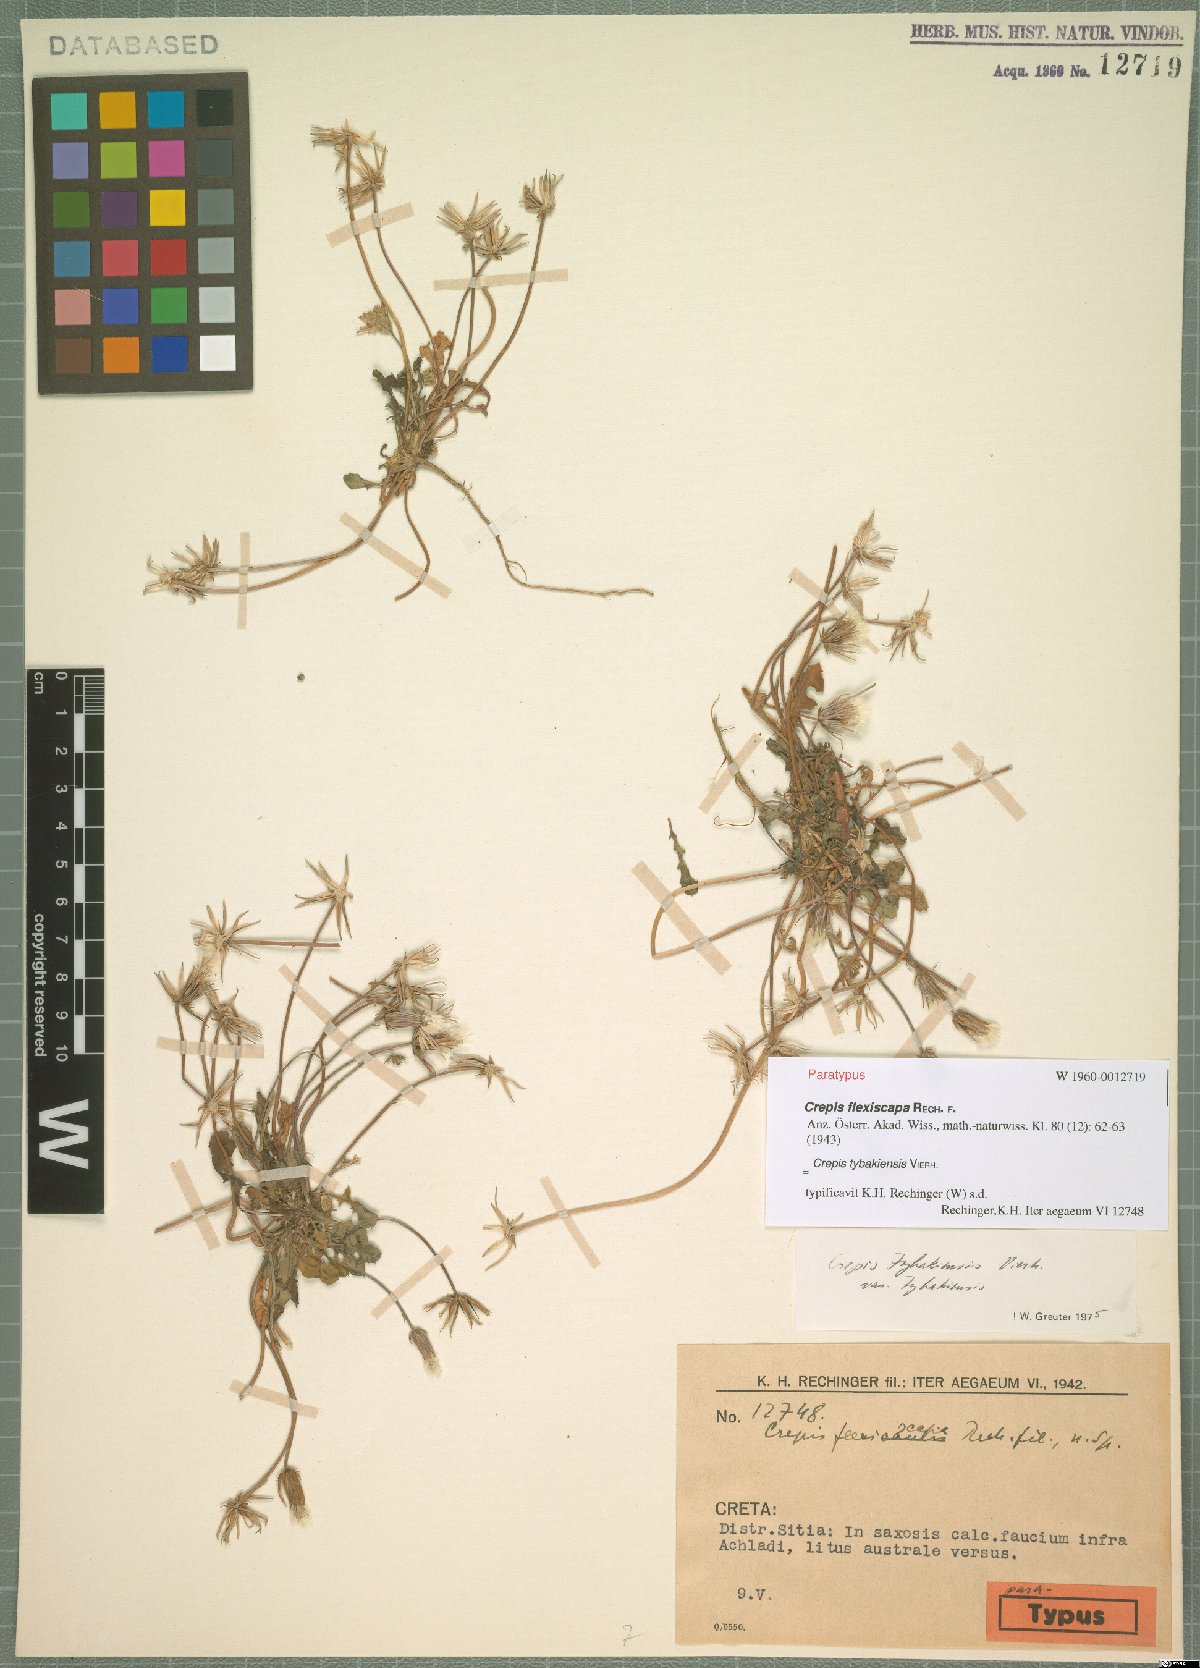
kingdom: Plantae
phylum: Tracheophyta
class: Magnoliopsida
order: Asterales
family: Asteraceae
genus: Crepis
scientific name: Crepis tybakiensis
